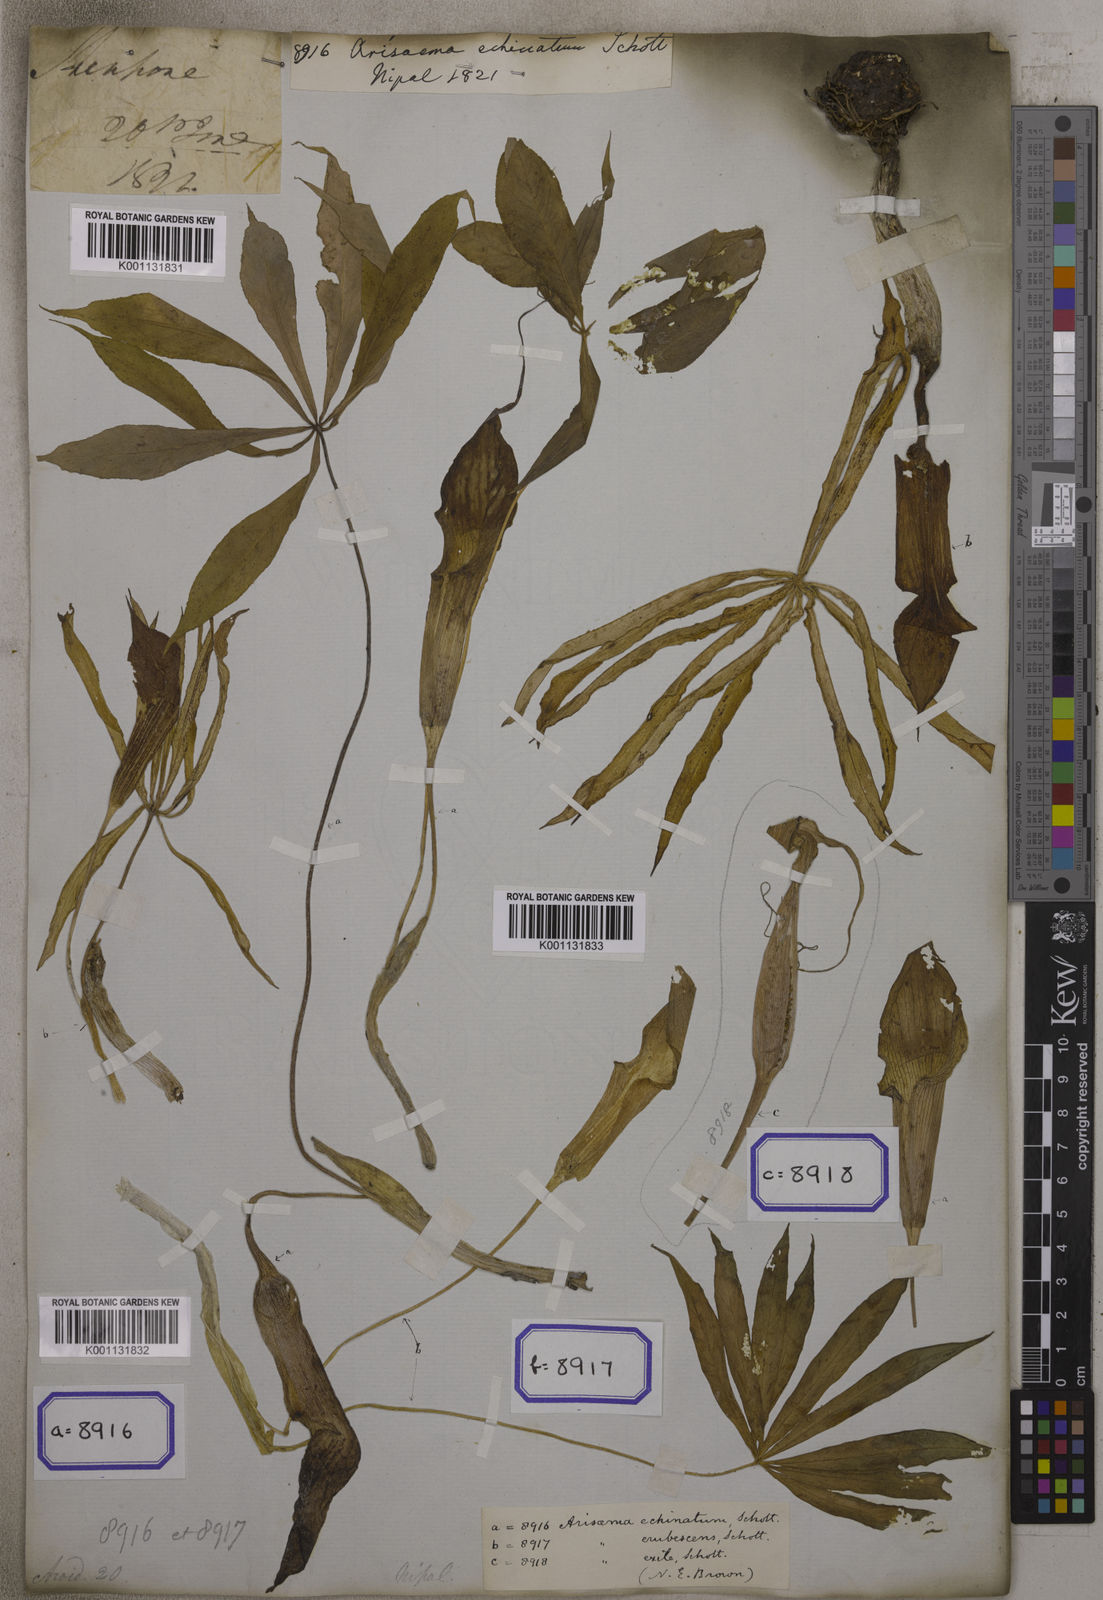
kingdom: Plantae
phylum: Tracheophyta
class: Liliopsida
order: Alismatales
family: Araceae
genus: Arisaema
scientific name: Arisaema
